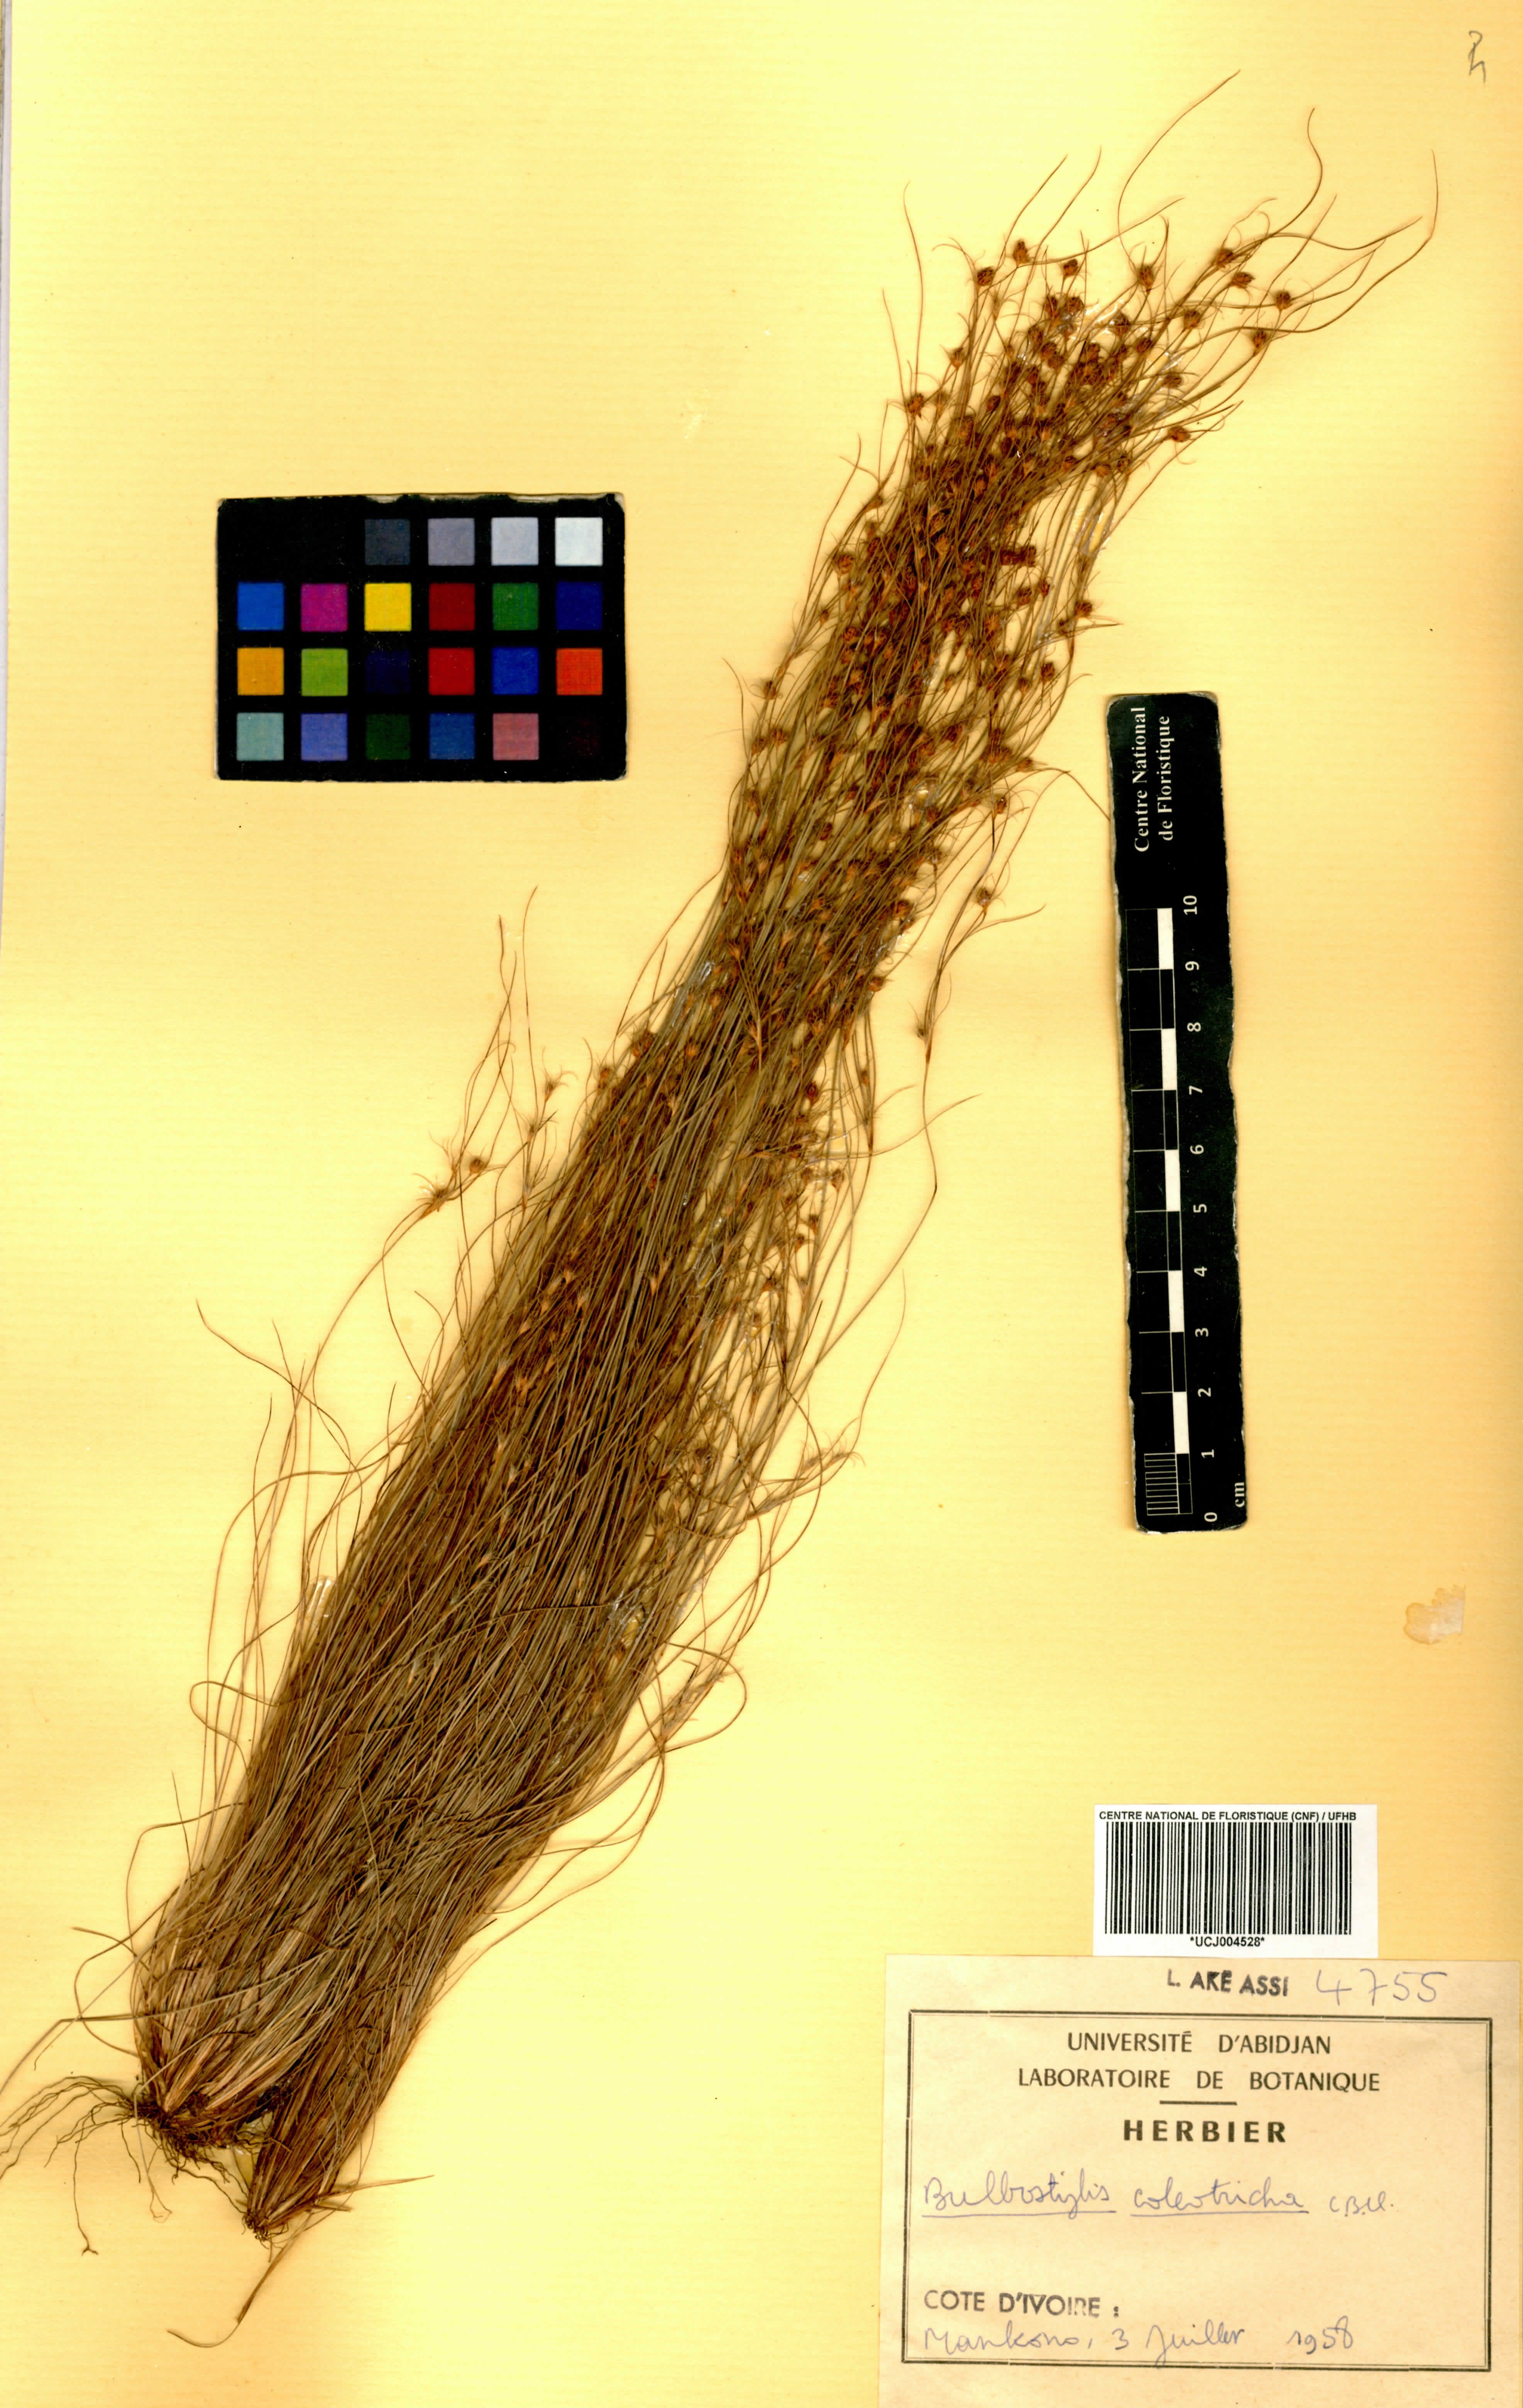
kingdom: Plantae
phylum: Tracheophyta
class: Liliopsida
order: Poales
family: Cyperaceae
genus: Bulbostylis
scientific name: Bulbostylis coleotricha
